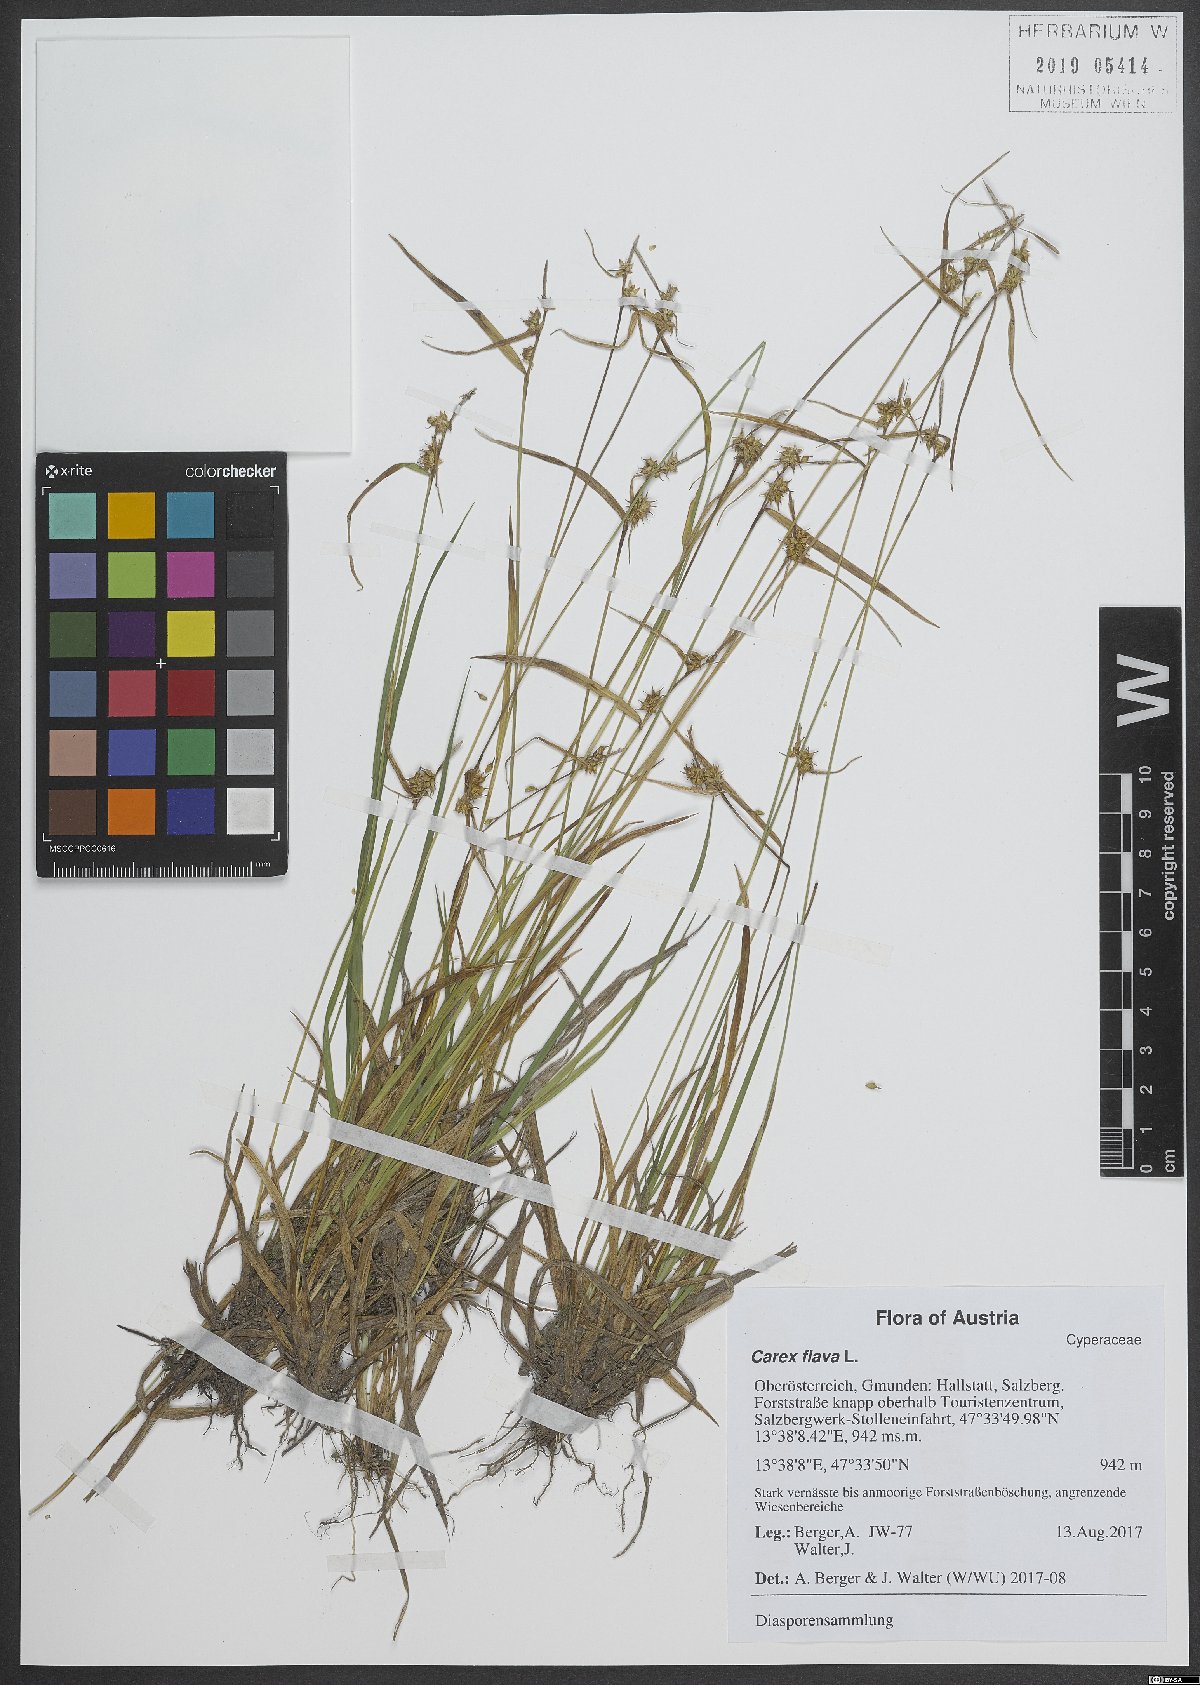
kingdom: Plantae
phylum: Tracheophyta
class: Liliopsida
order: Poales
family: Cyperaceae
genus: Carex
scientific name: Carex flava
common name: Large yellow-sedge
